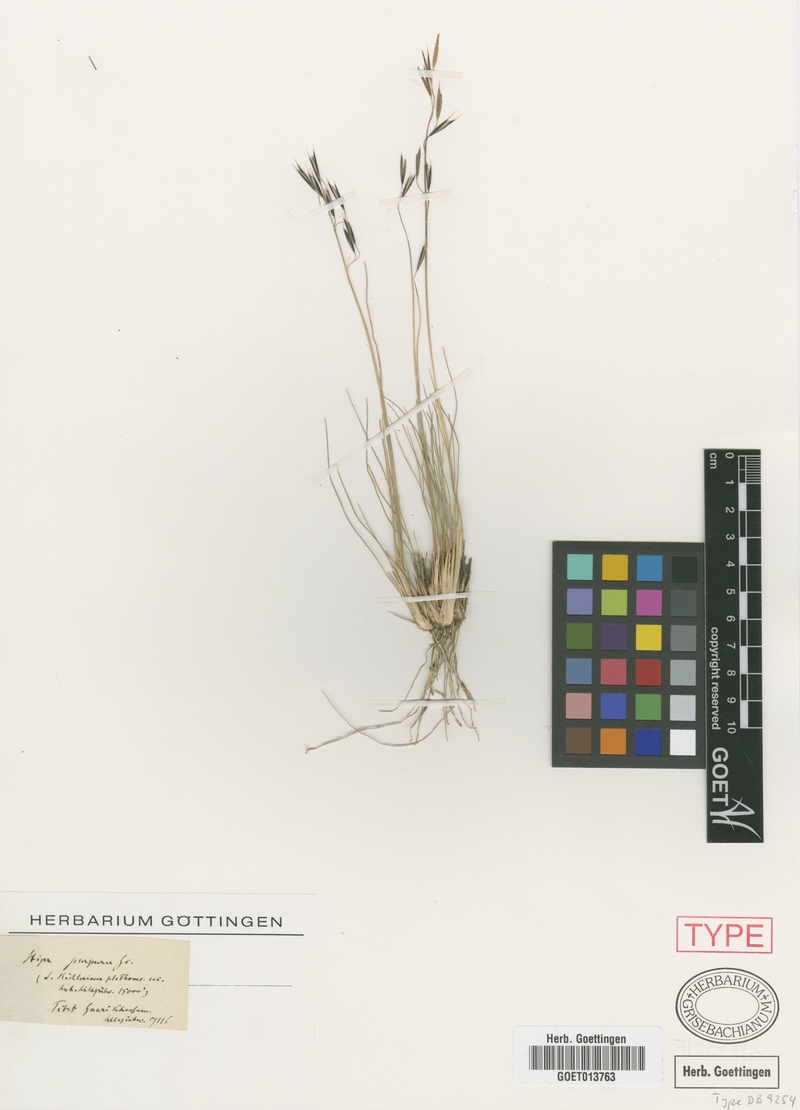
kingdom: Plantae
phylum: Tracheophyta
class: Liliopsida
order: Poales
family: Poaceae
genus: Stipa
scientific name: Stipa purpurea
